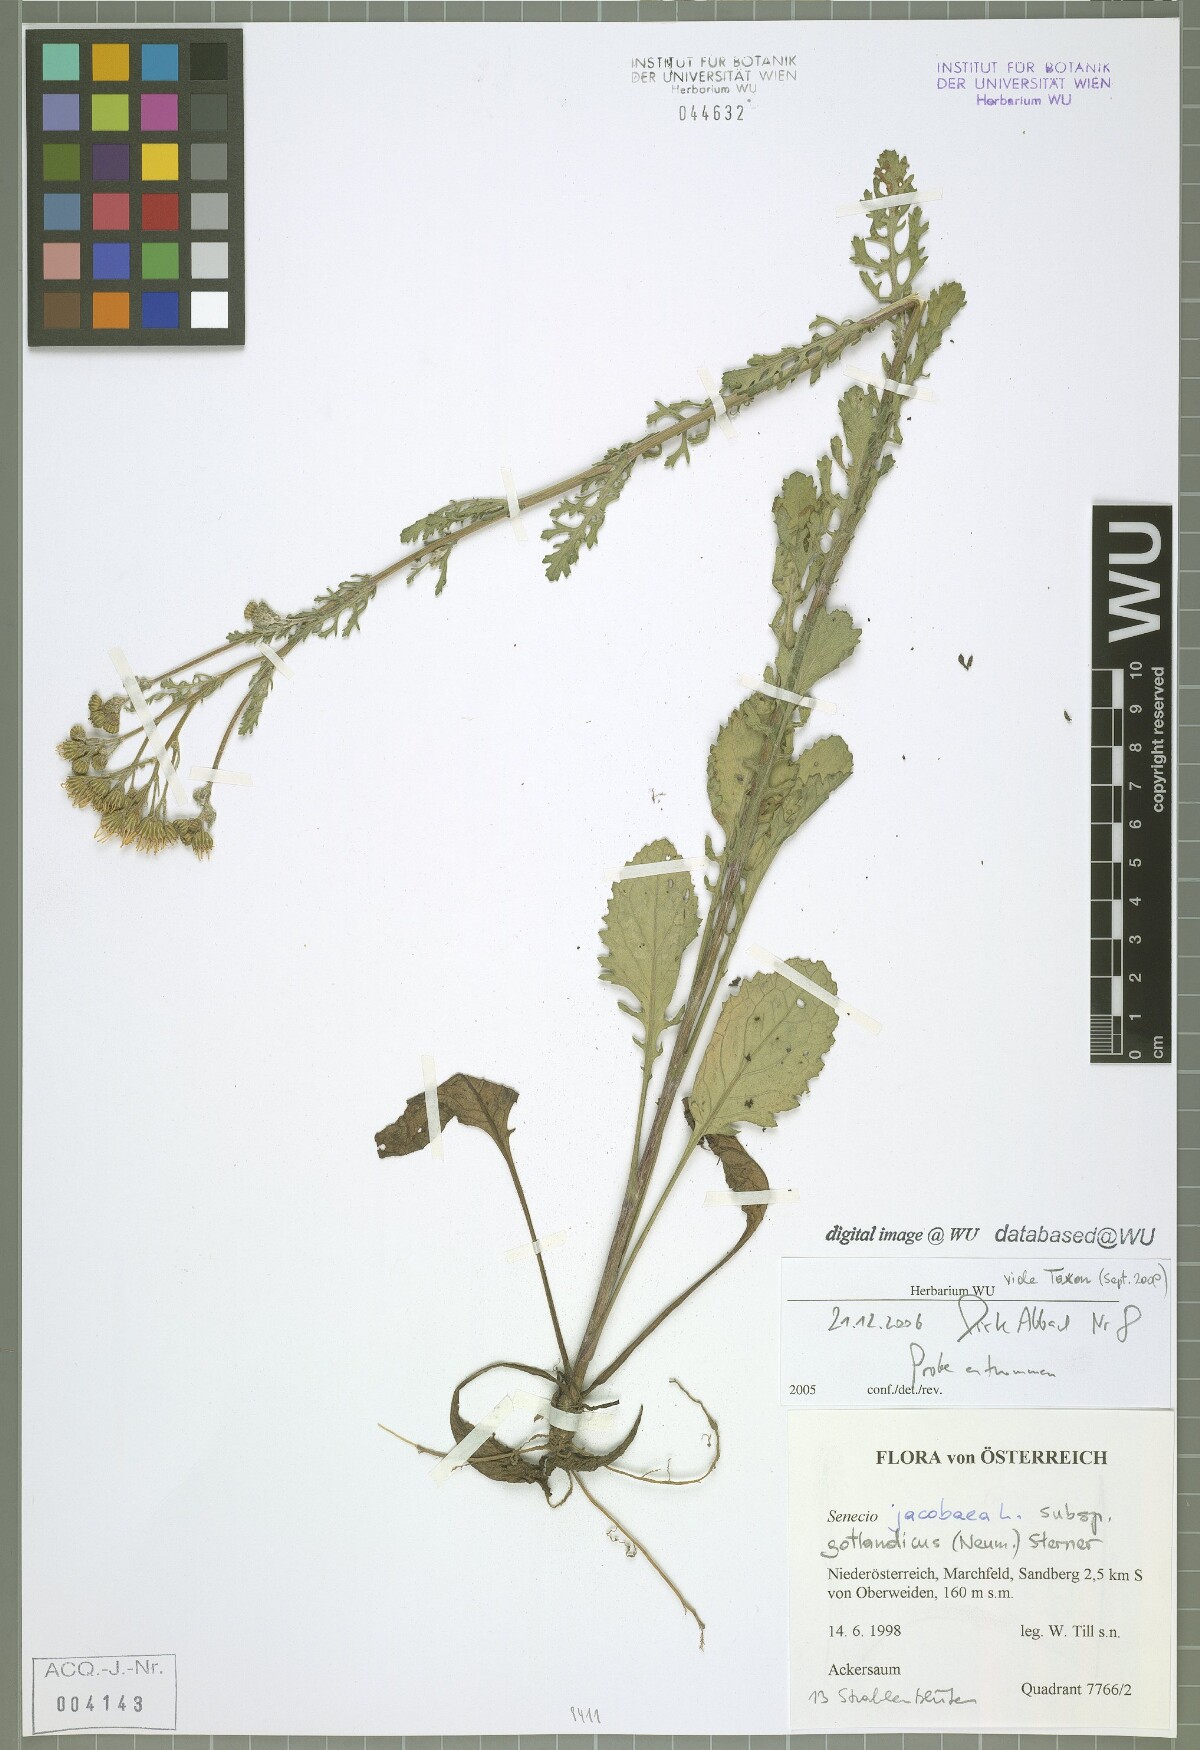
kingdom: Plantae
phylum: Tracheophyta
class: Magnoliopsida
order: Asterales
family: Asteraceae
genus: Jacobaea
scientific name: Jacobaea vulgaris
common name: Stinking willie
